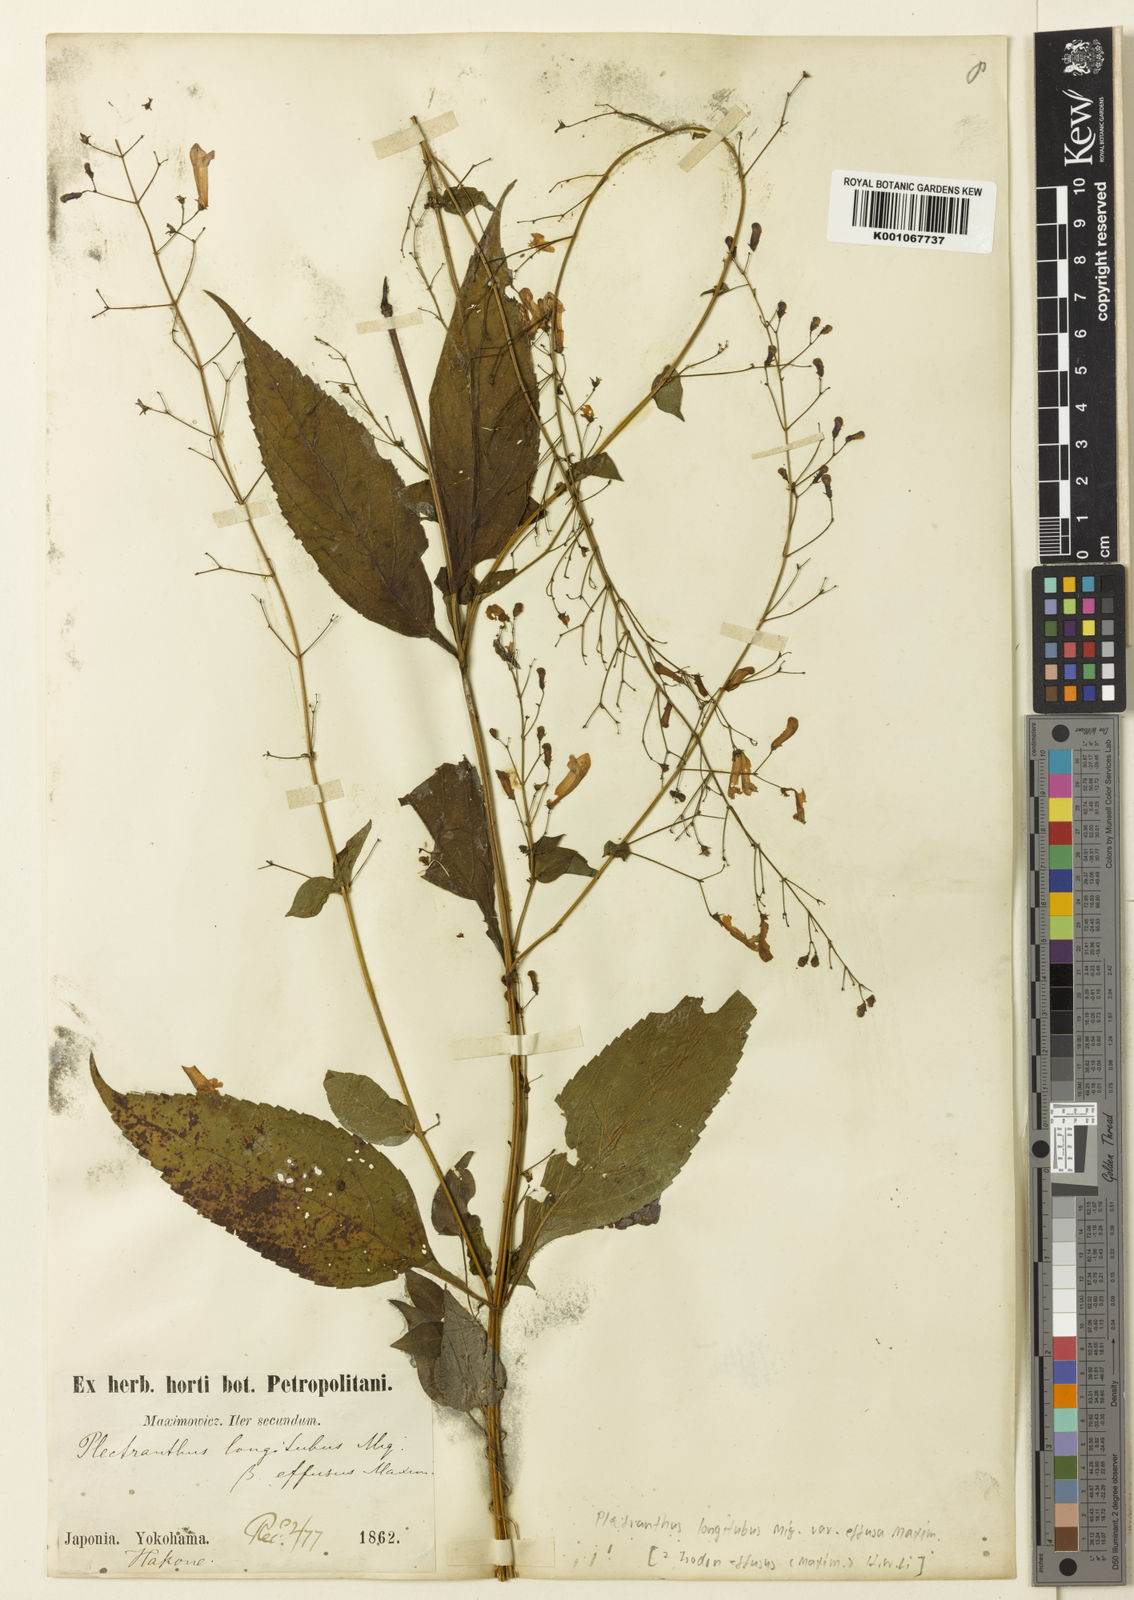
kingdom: Plantae
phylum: Tracheophyta
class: Magnoliopsida
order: Lamiales
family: Lamiaceae
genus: Isodon
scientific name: Isodon
